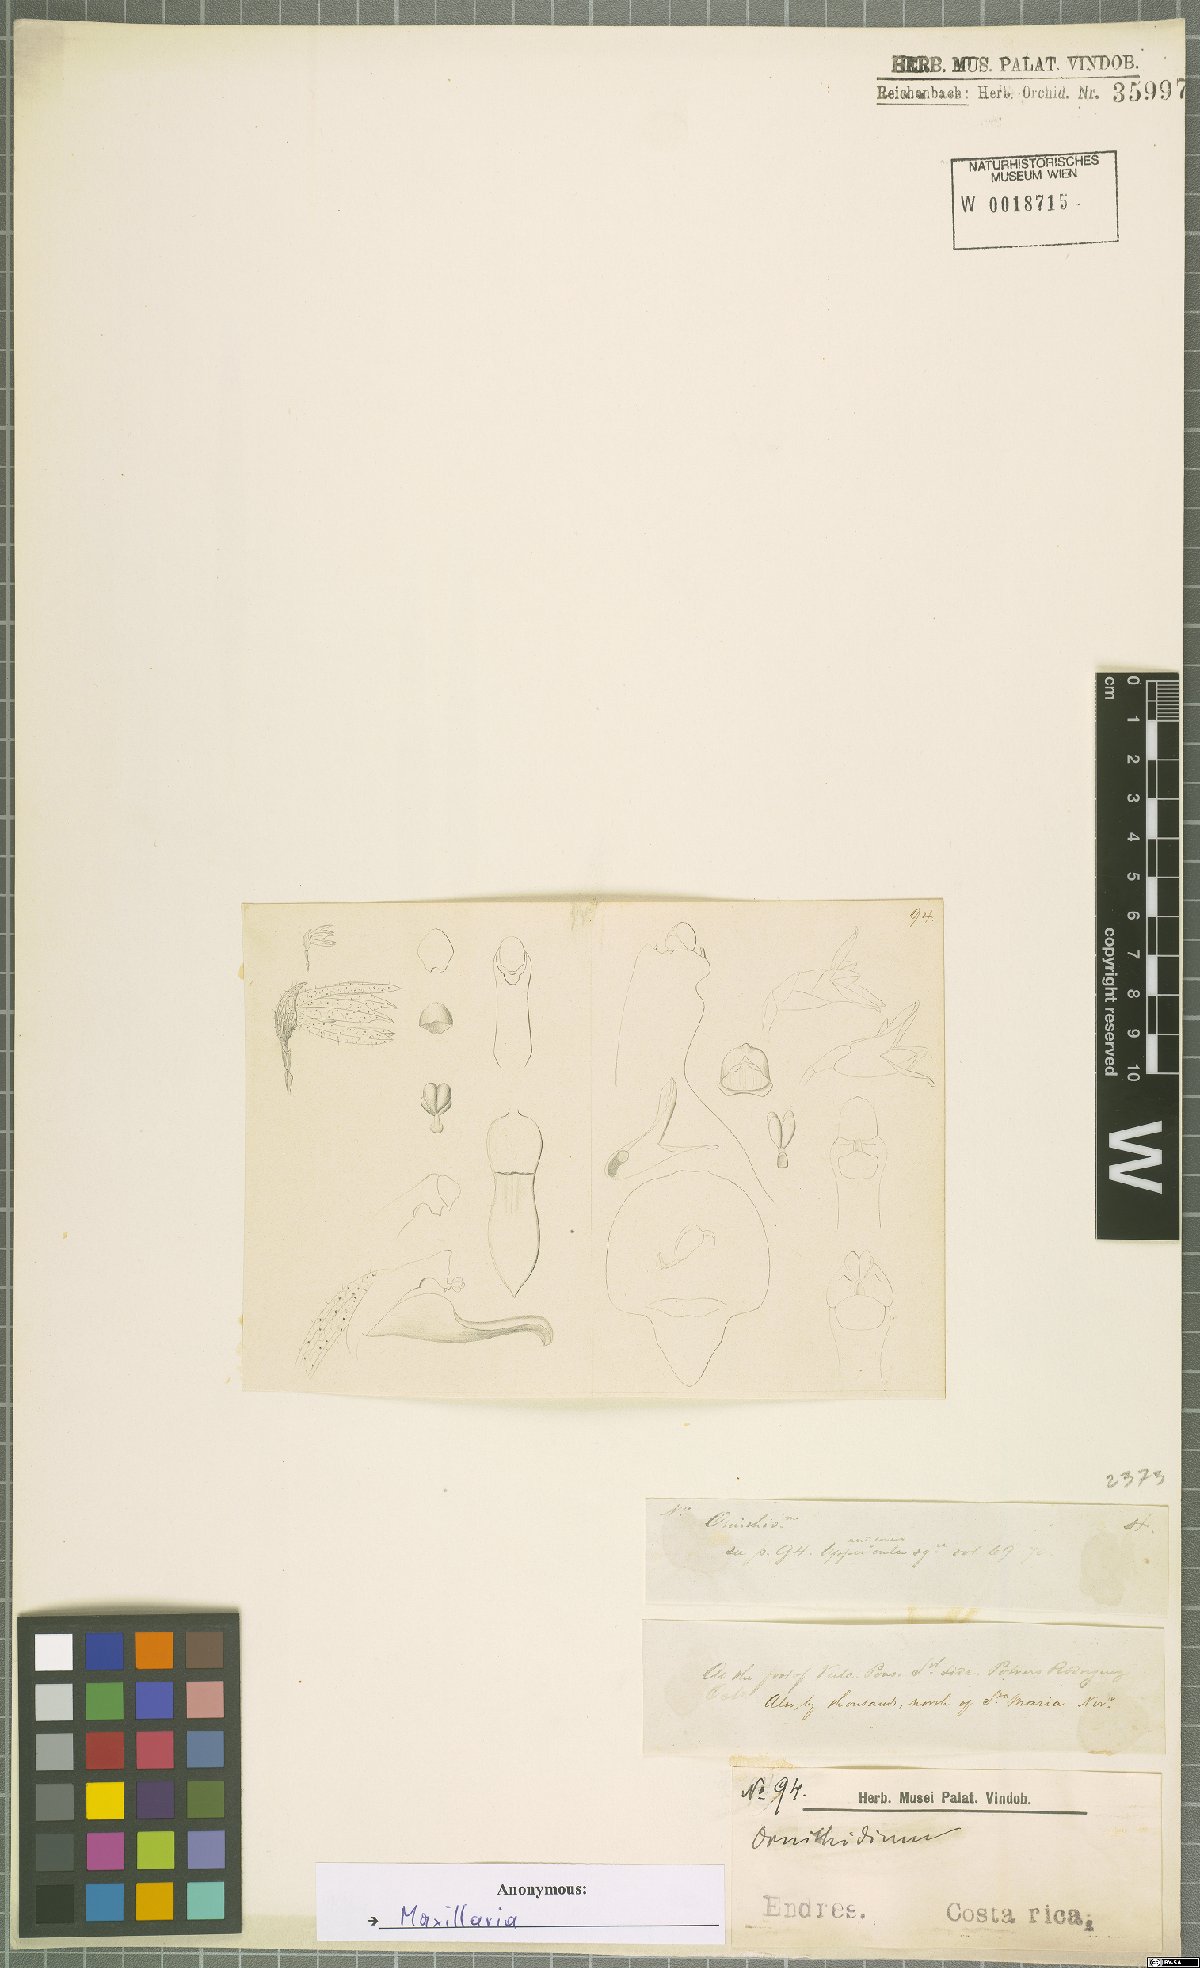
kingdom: Plantae
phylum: Tracheophyta
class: Liliopsida
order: Asparagales
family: Orchidaceae
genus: Maxillaria
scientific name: Maxillaria
